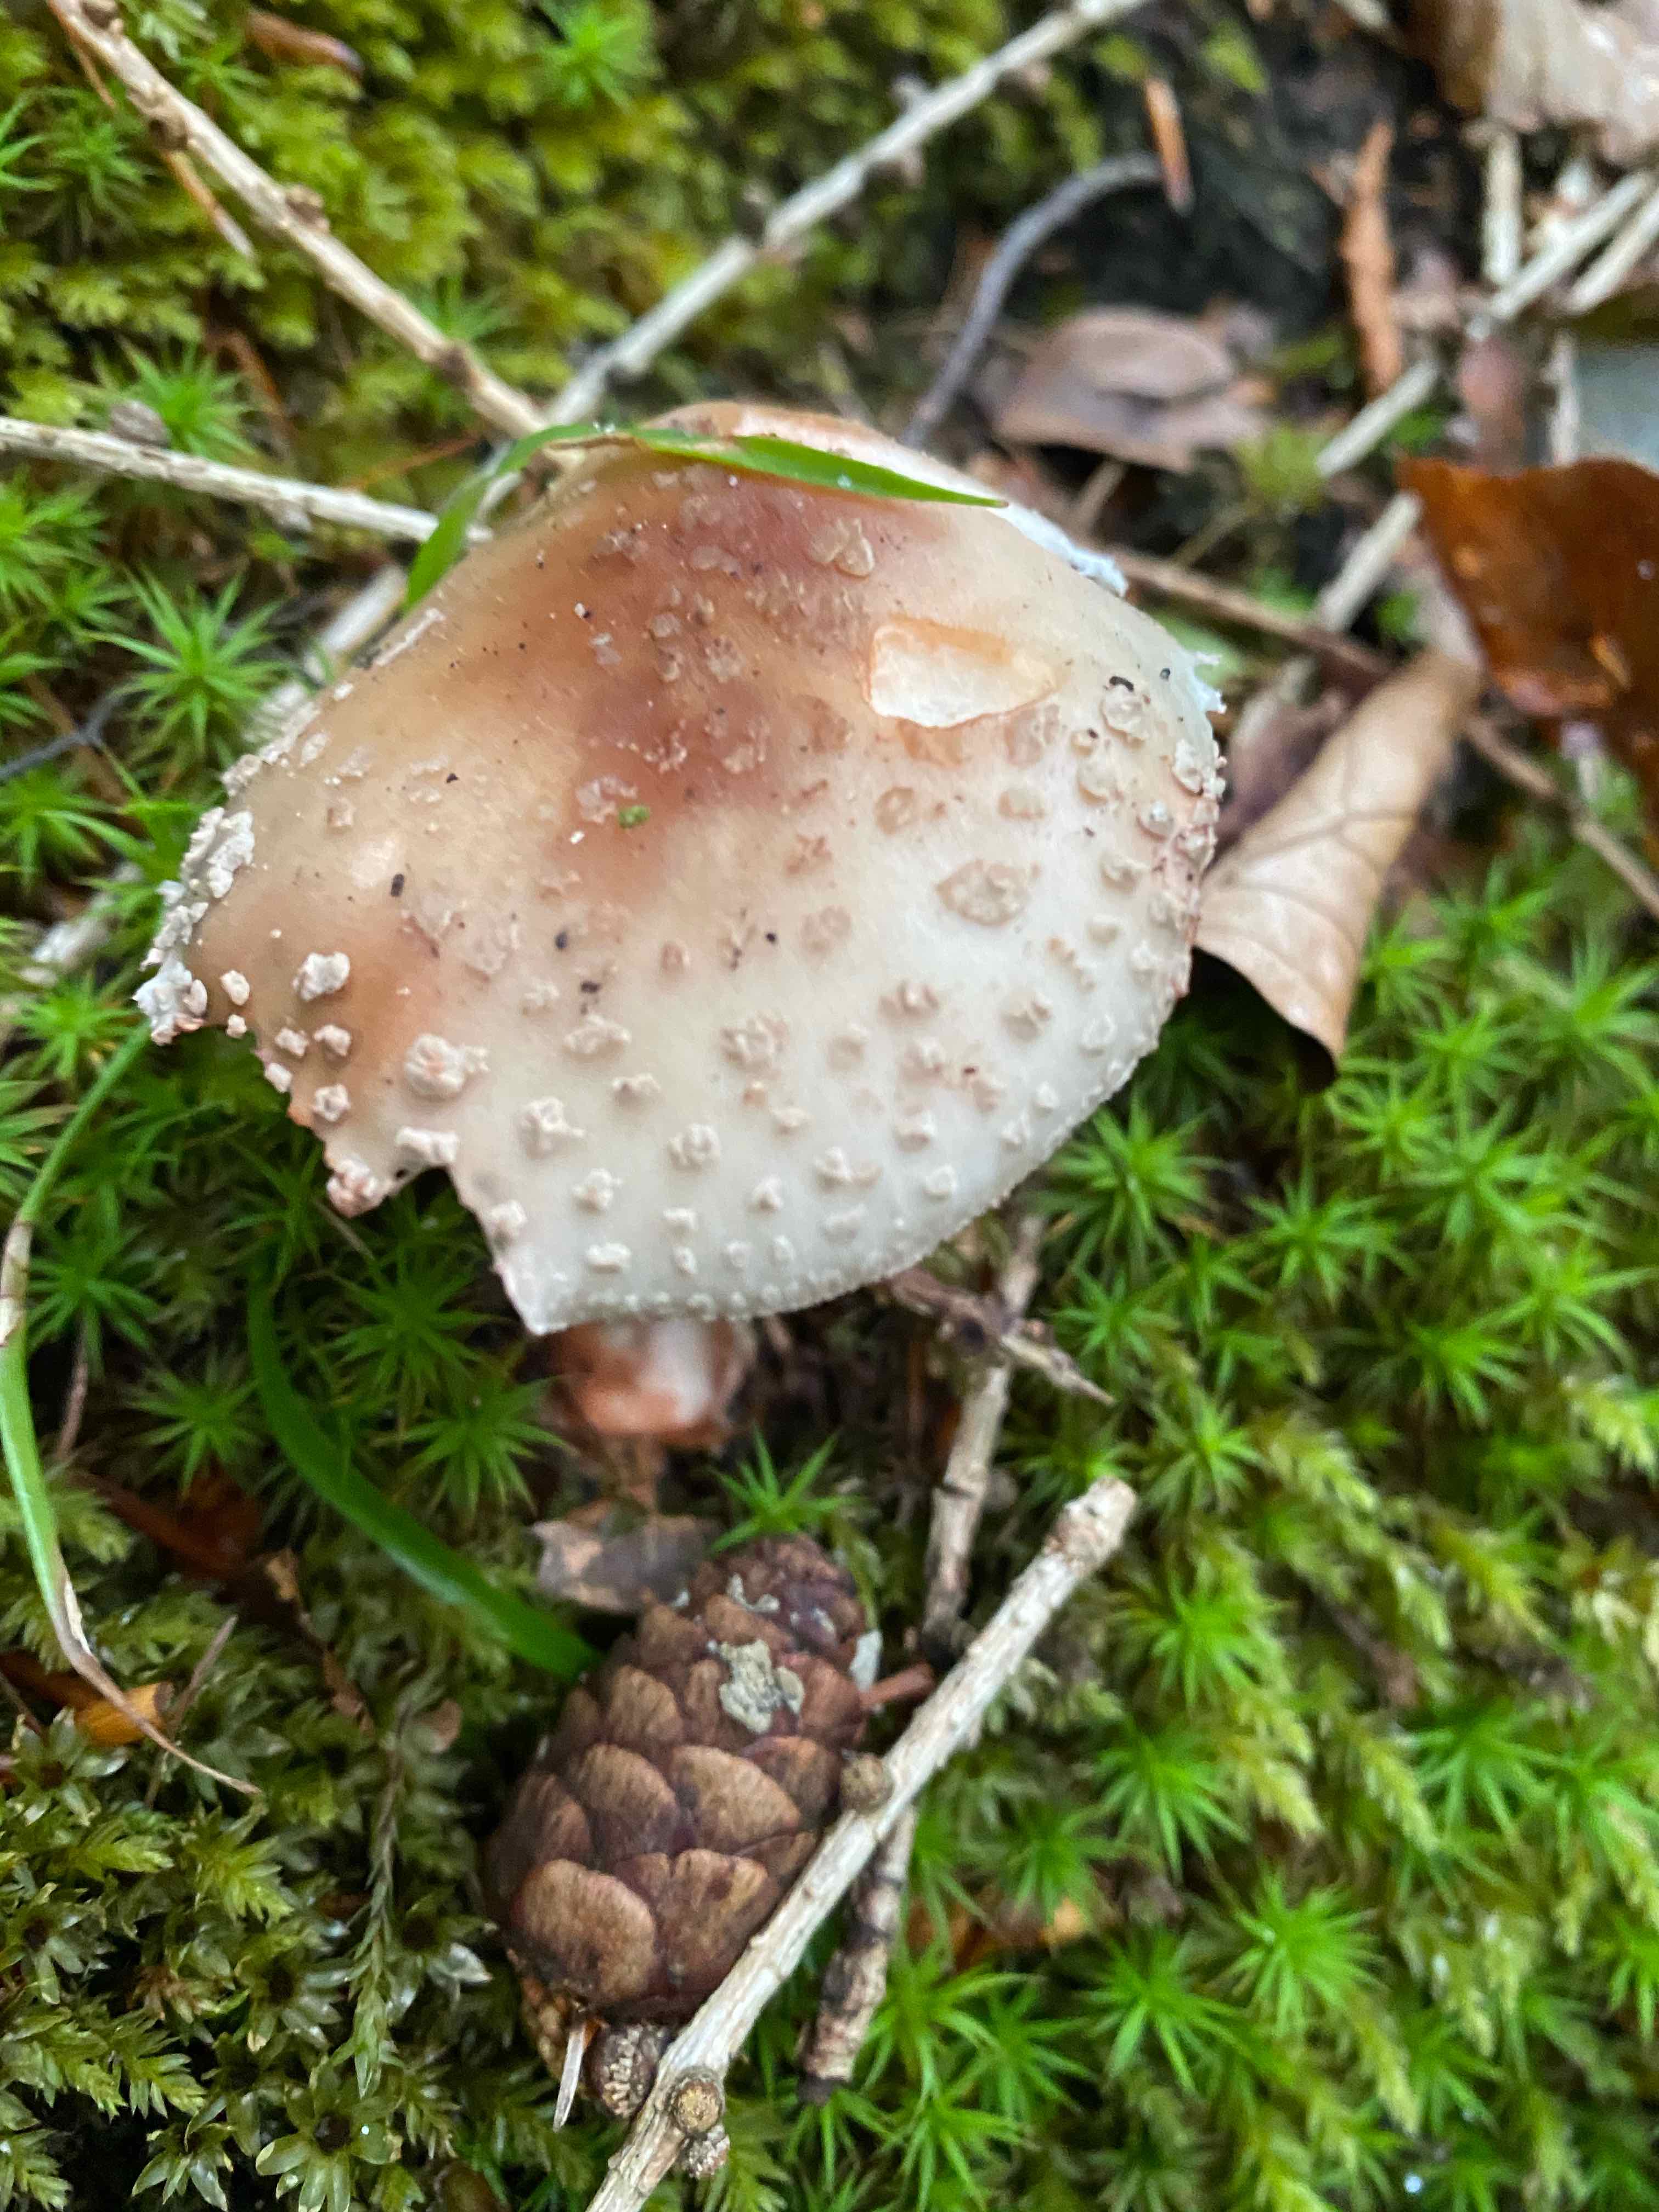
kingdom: Fungi
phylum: Basidiomycota
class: Agaricomycetes
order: Agaricales
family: Amanitaceae
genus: Amanita
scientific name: Amanita rubescens
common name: rødmende fluesvamp
